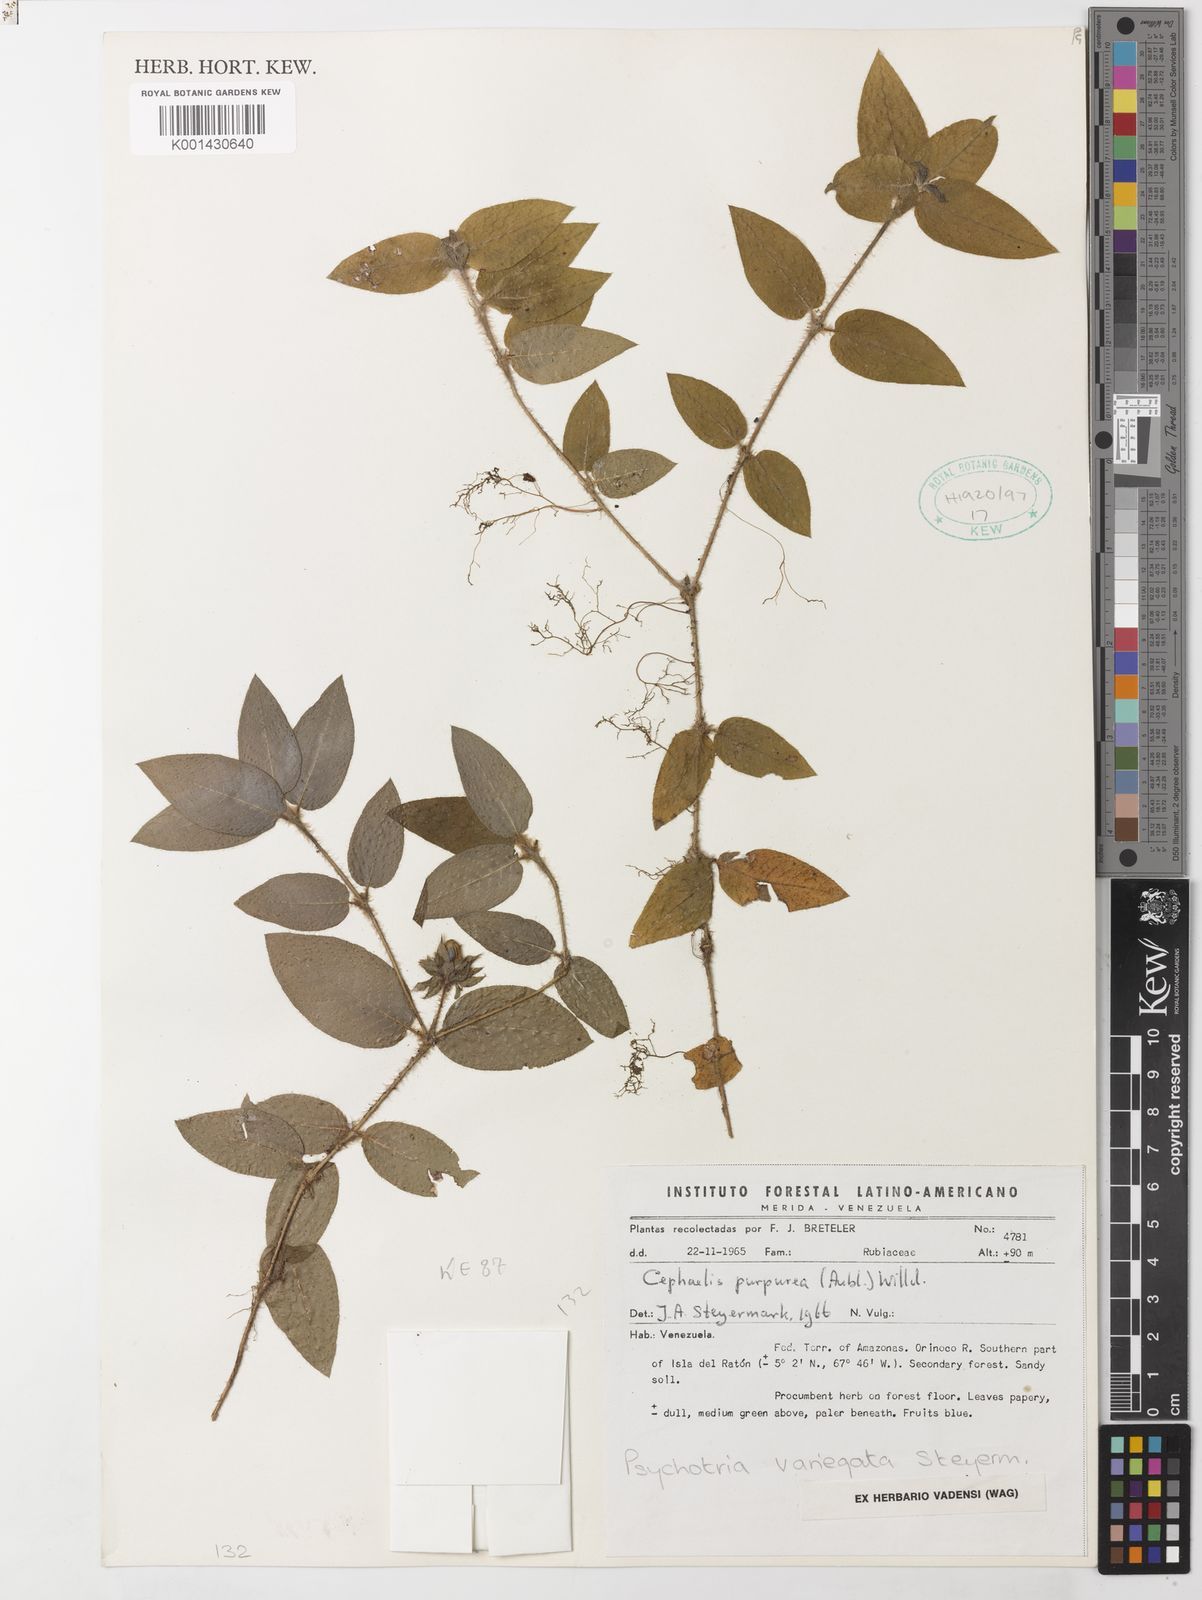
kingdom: Plantae
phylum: Tracheophyta
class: Magnoliopsida
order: Gentianales
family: Rubiaceae
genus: Palicourea
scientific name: Palicourea debilis
